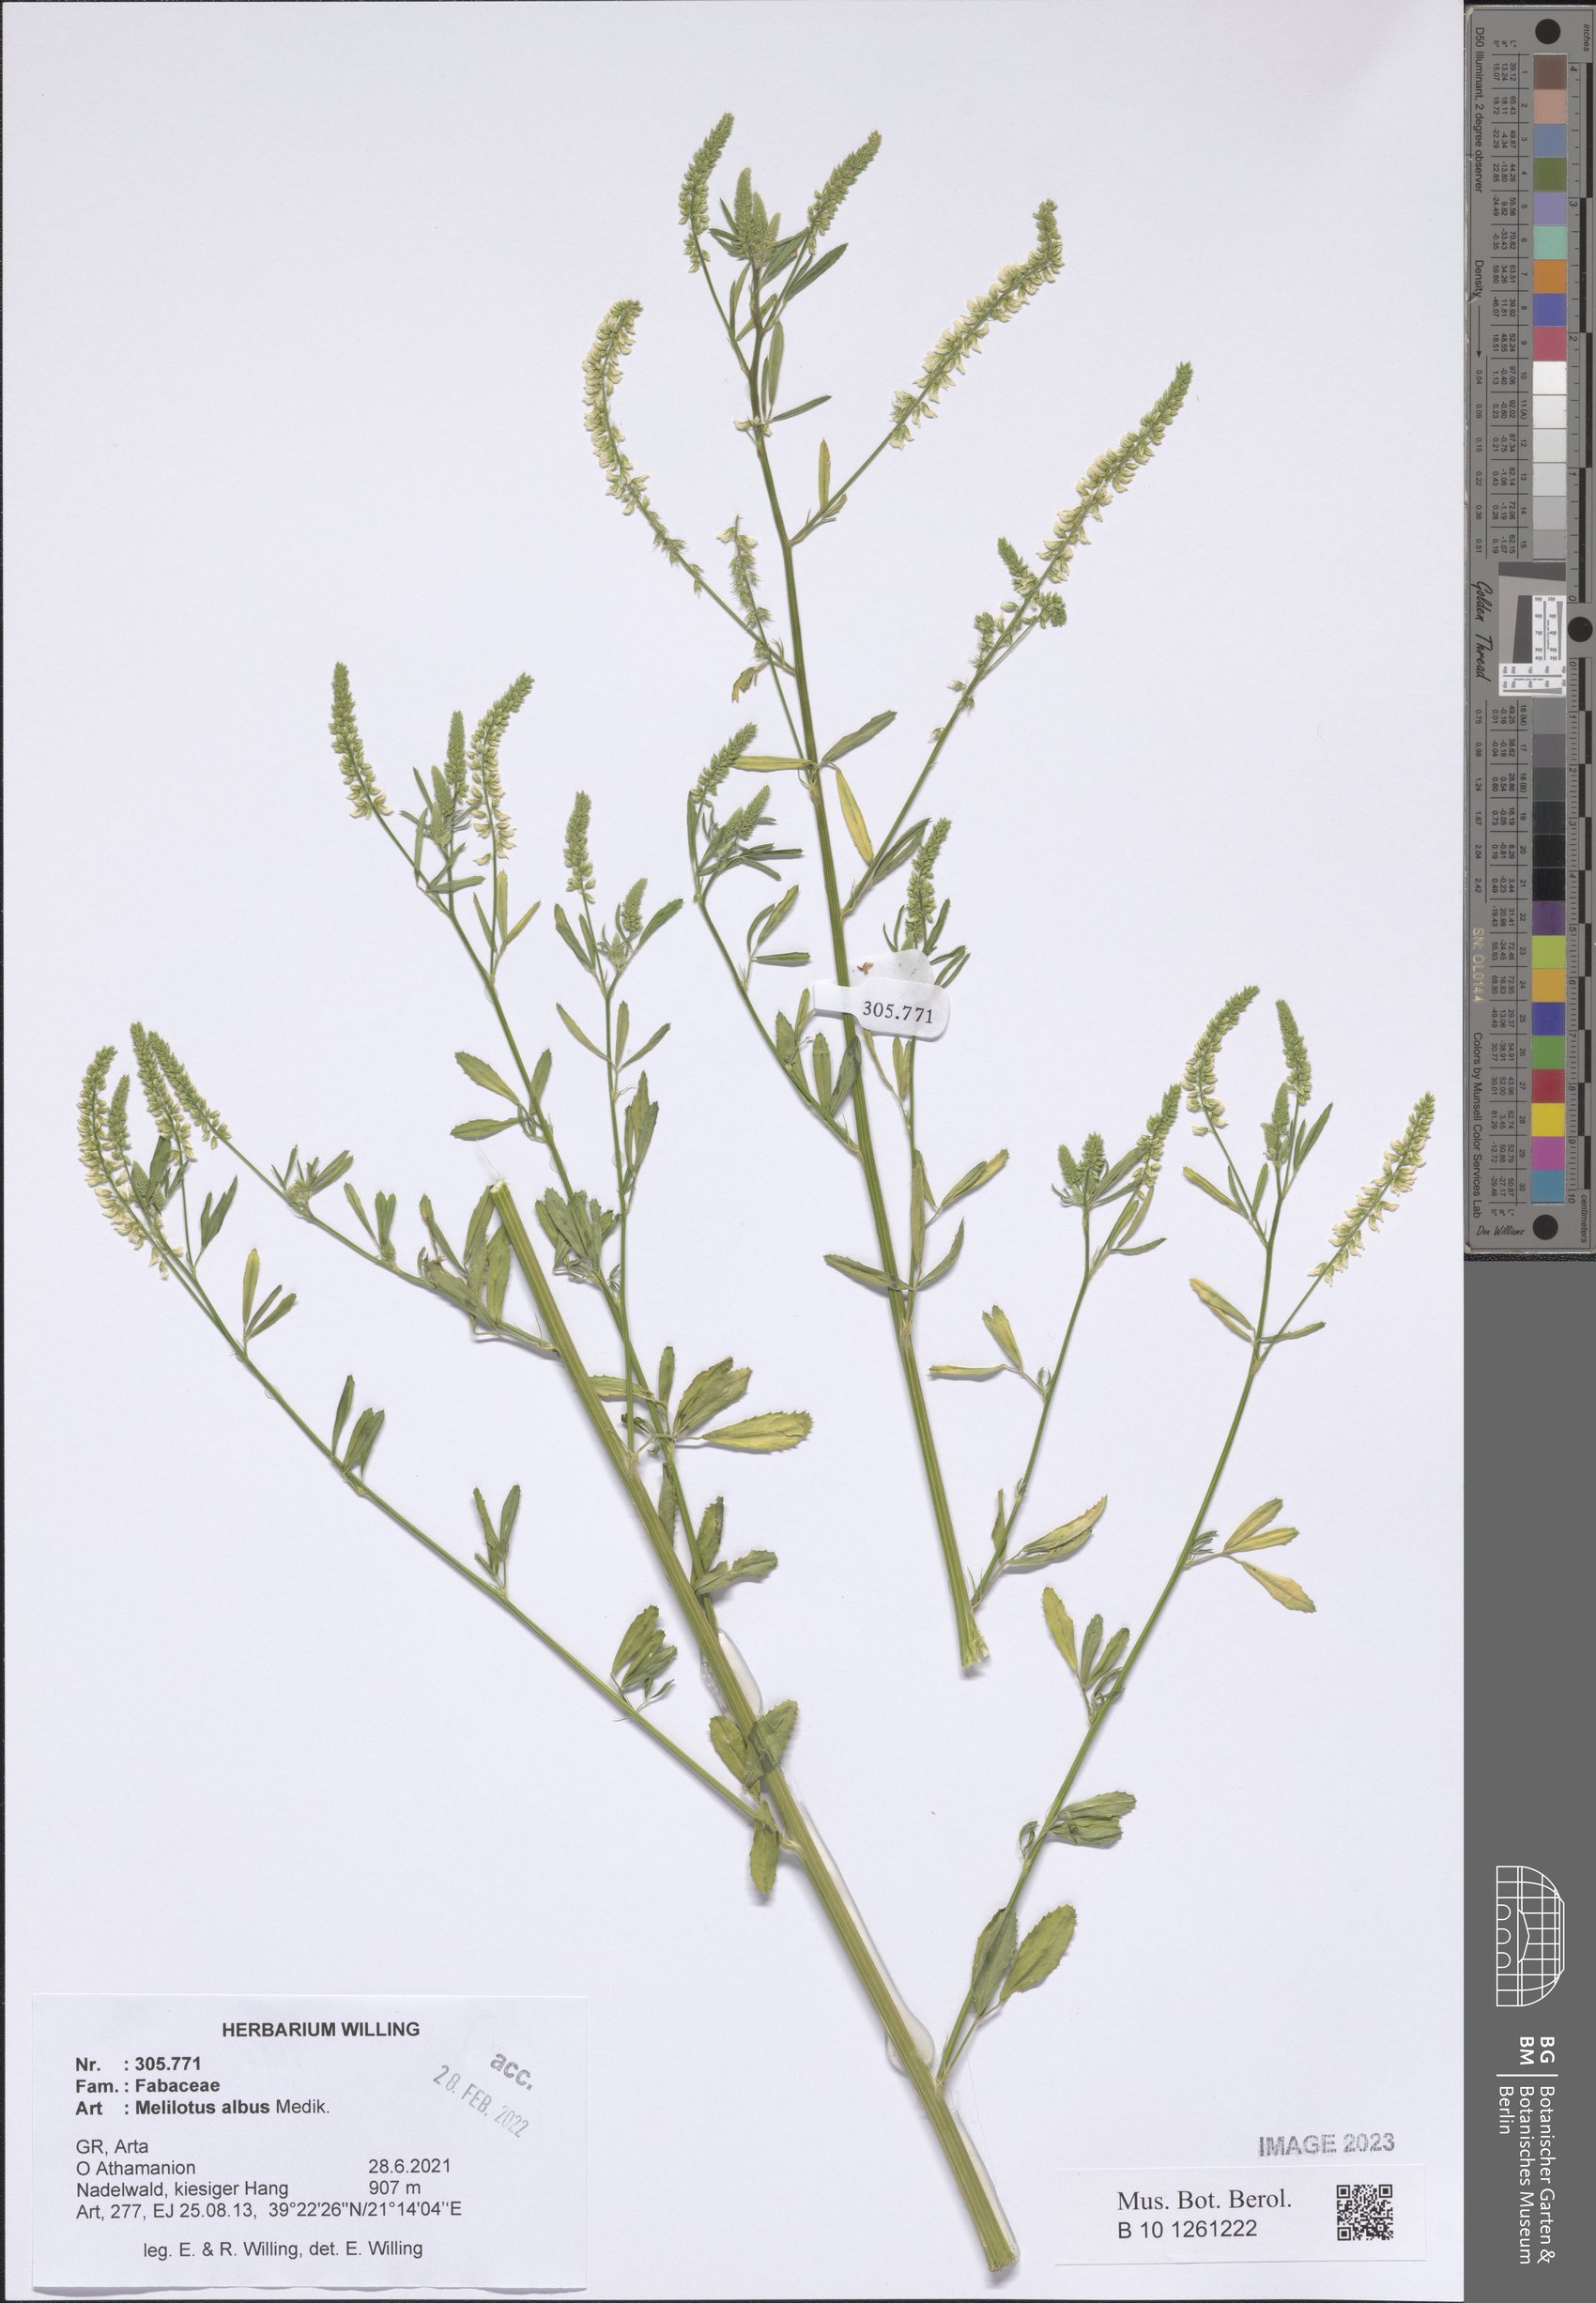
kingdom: Plantae
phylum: Tracheophyta
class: Magnoliopsida
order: Fabales
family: Fabaceae
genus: Melilotus
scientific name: Melilotus albus
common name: White melilot
